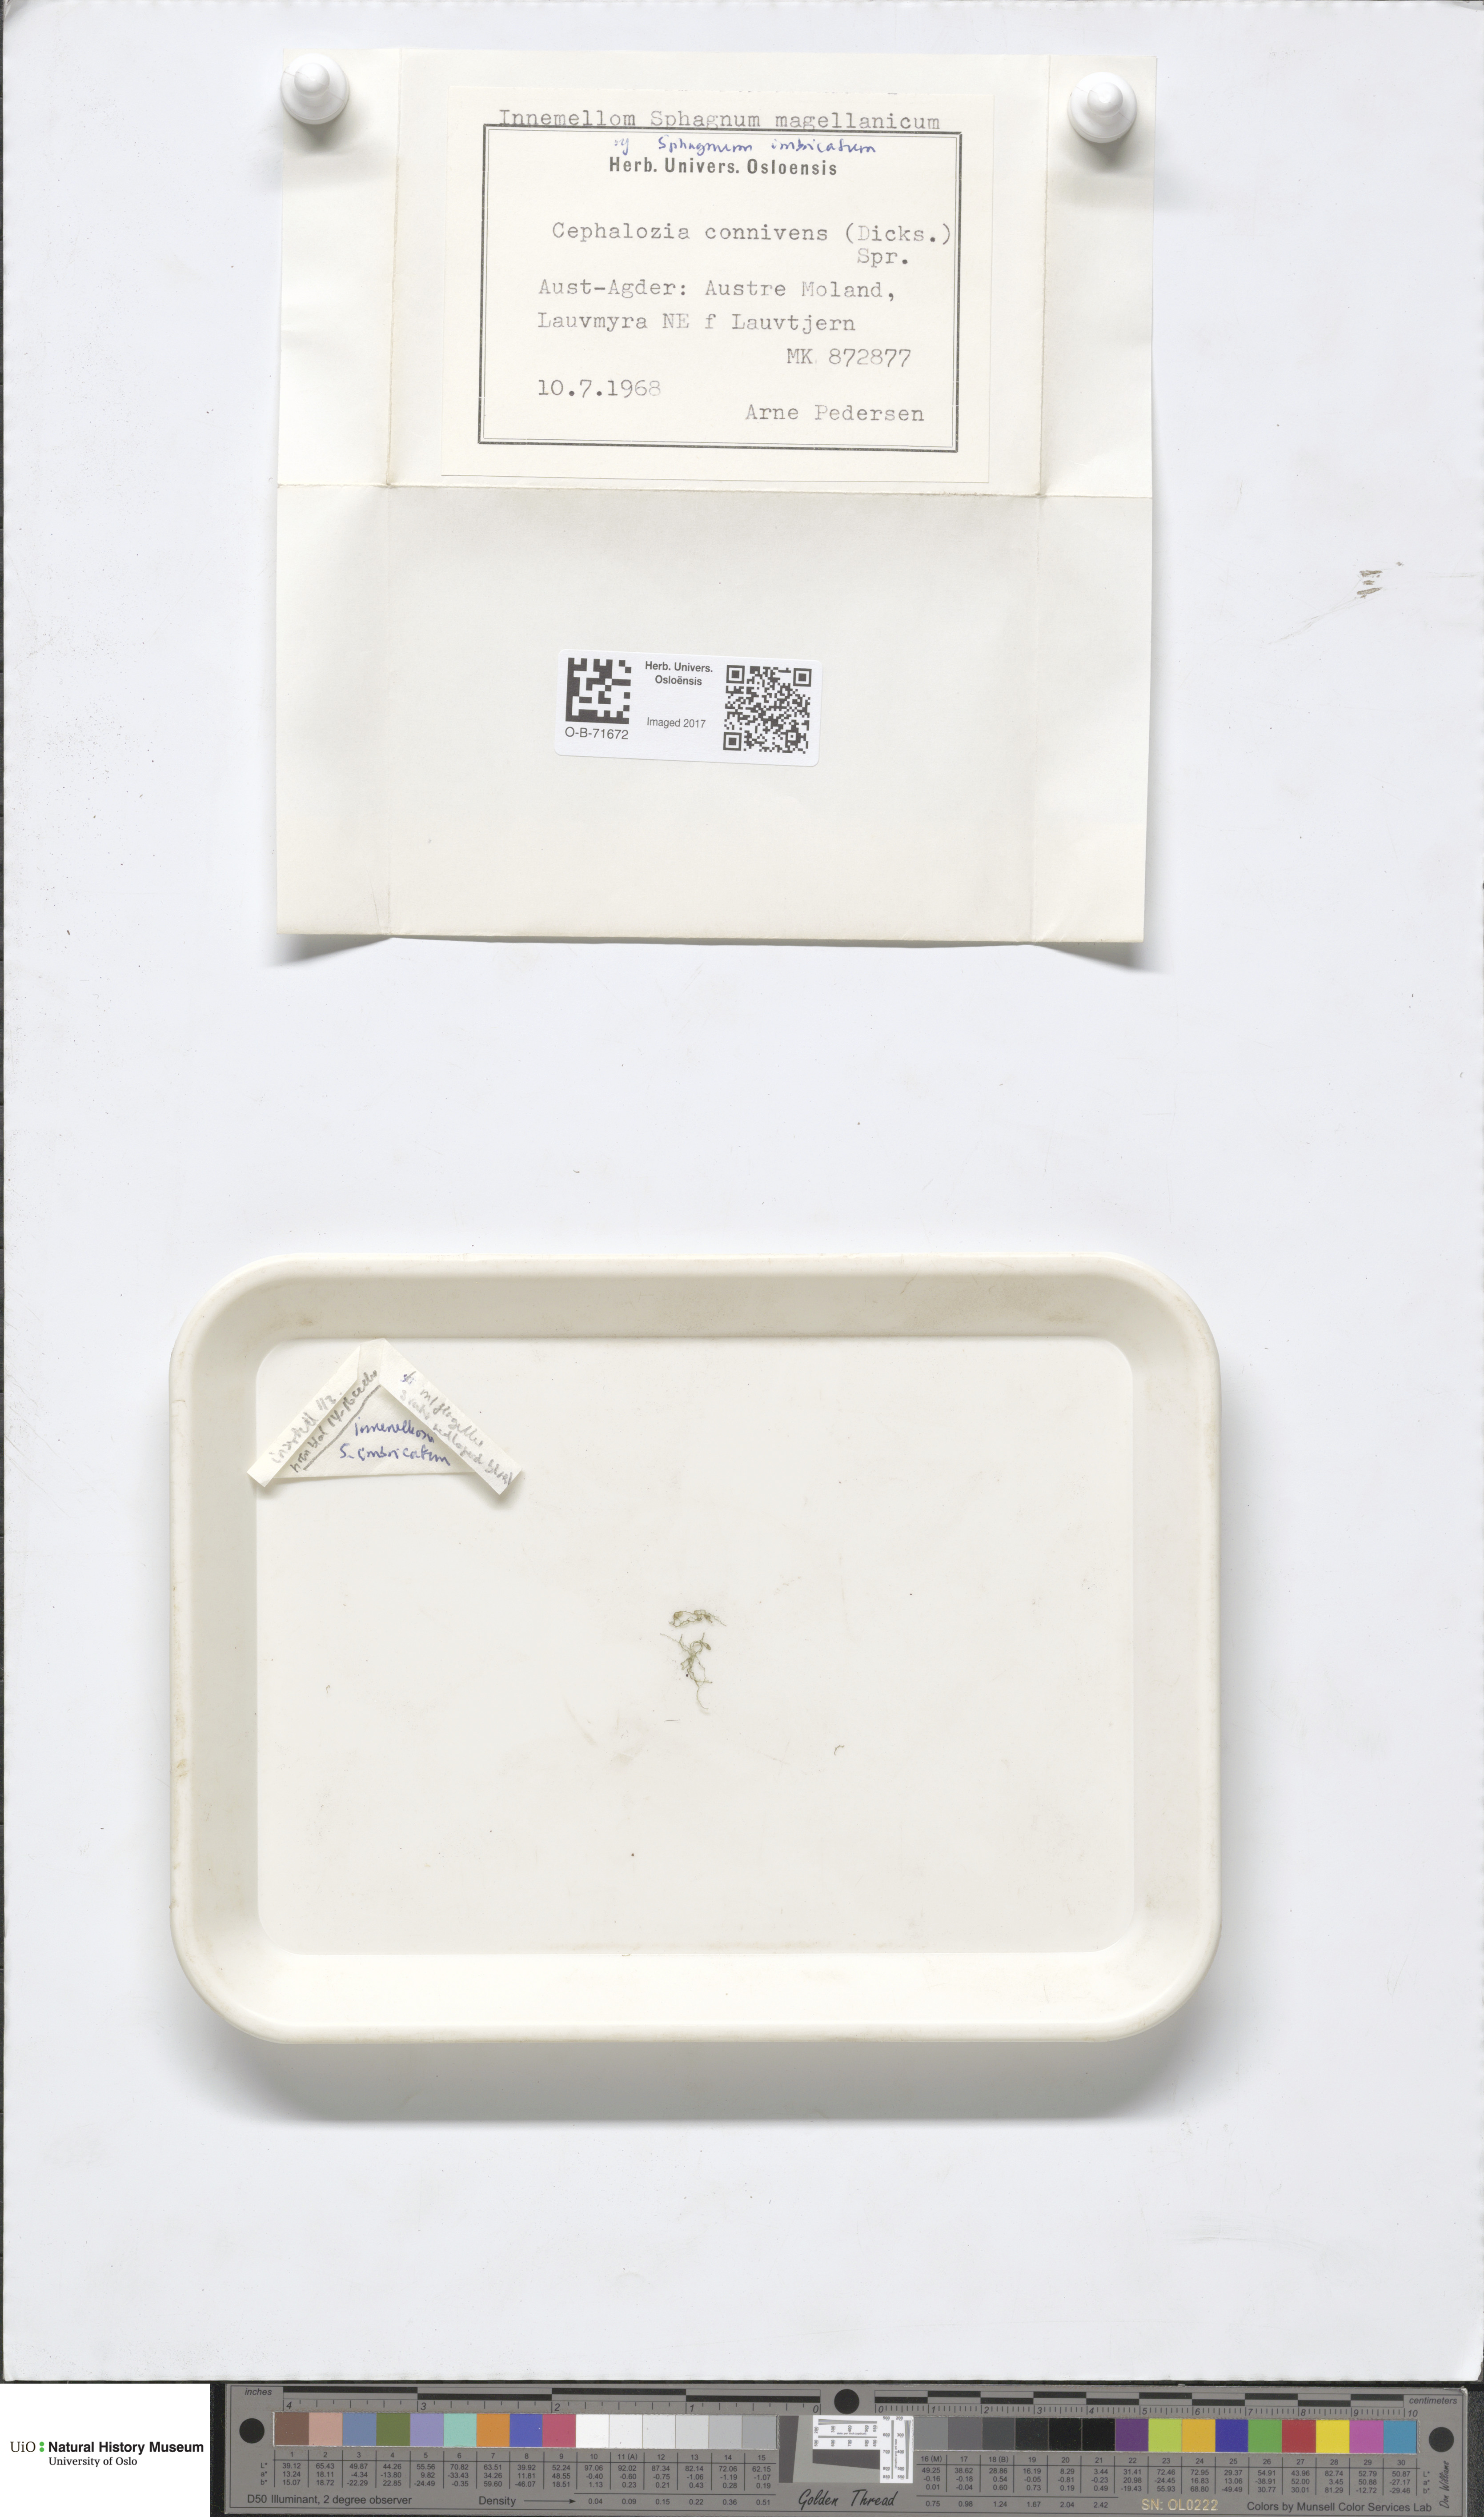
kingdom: Plantae
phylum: Marchantiophyta
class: Jungermanniopsida
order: Jungermanniales
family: Cephaloziaceae
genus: Fuscocephaloziopsis
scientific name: Fuscocephaloziopsis connivens
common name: Forcipated pincerwort
